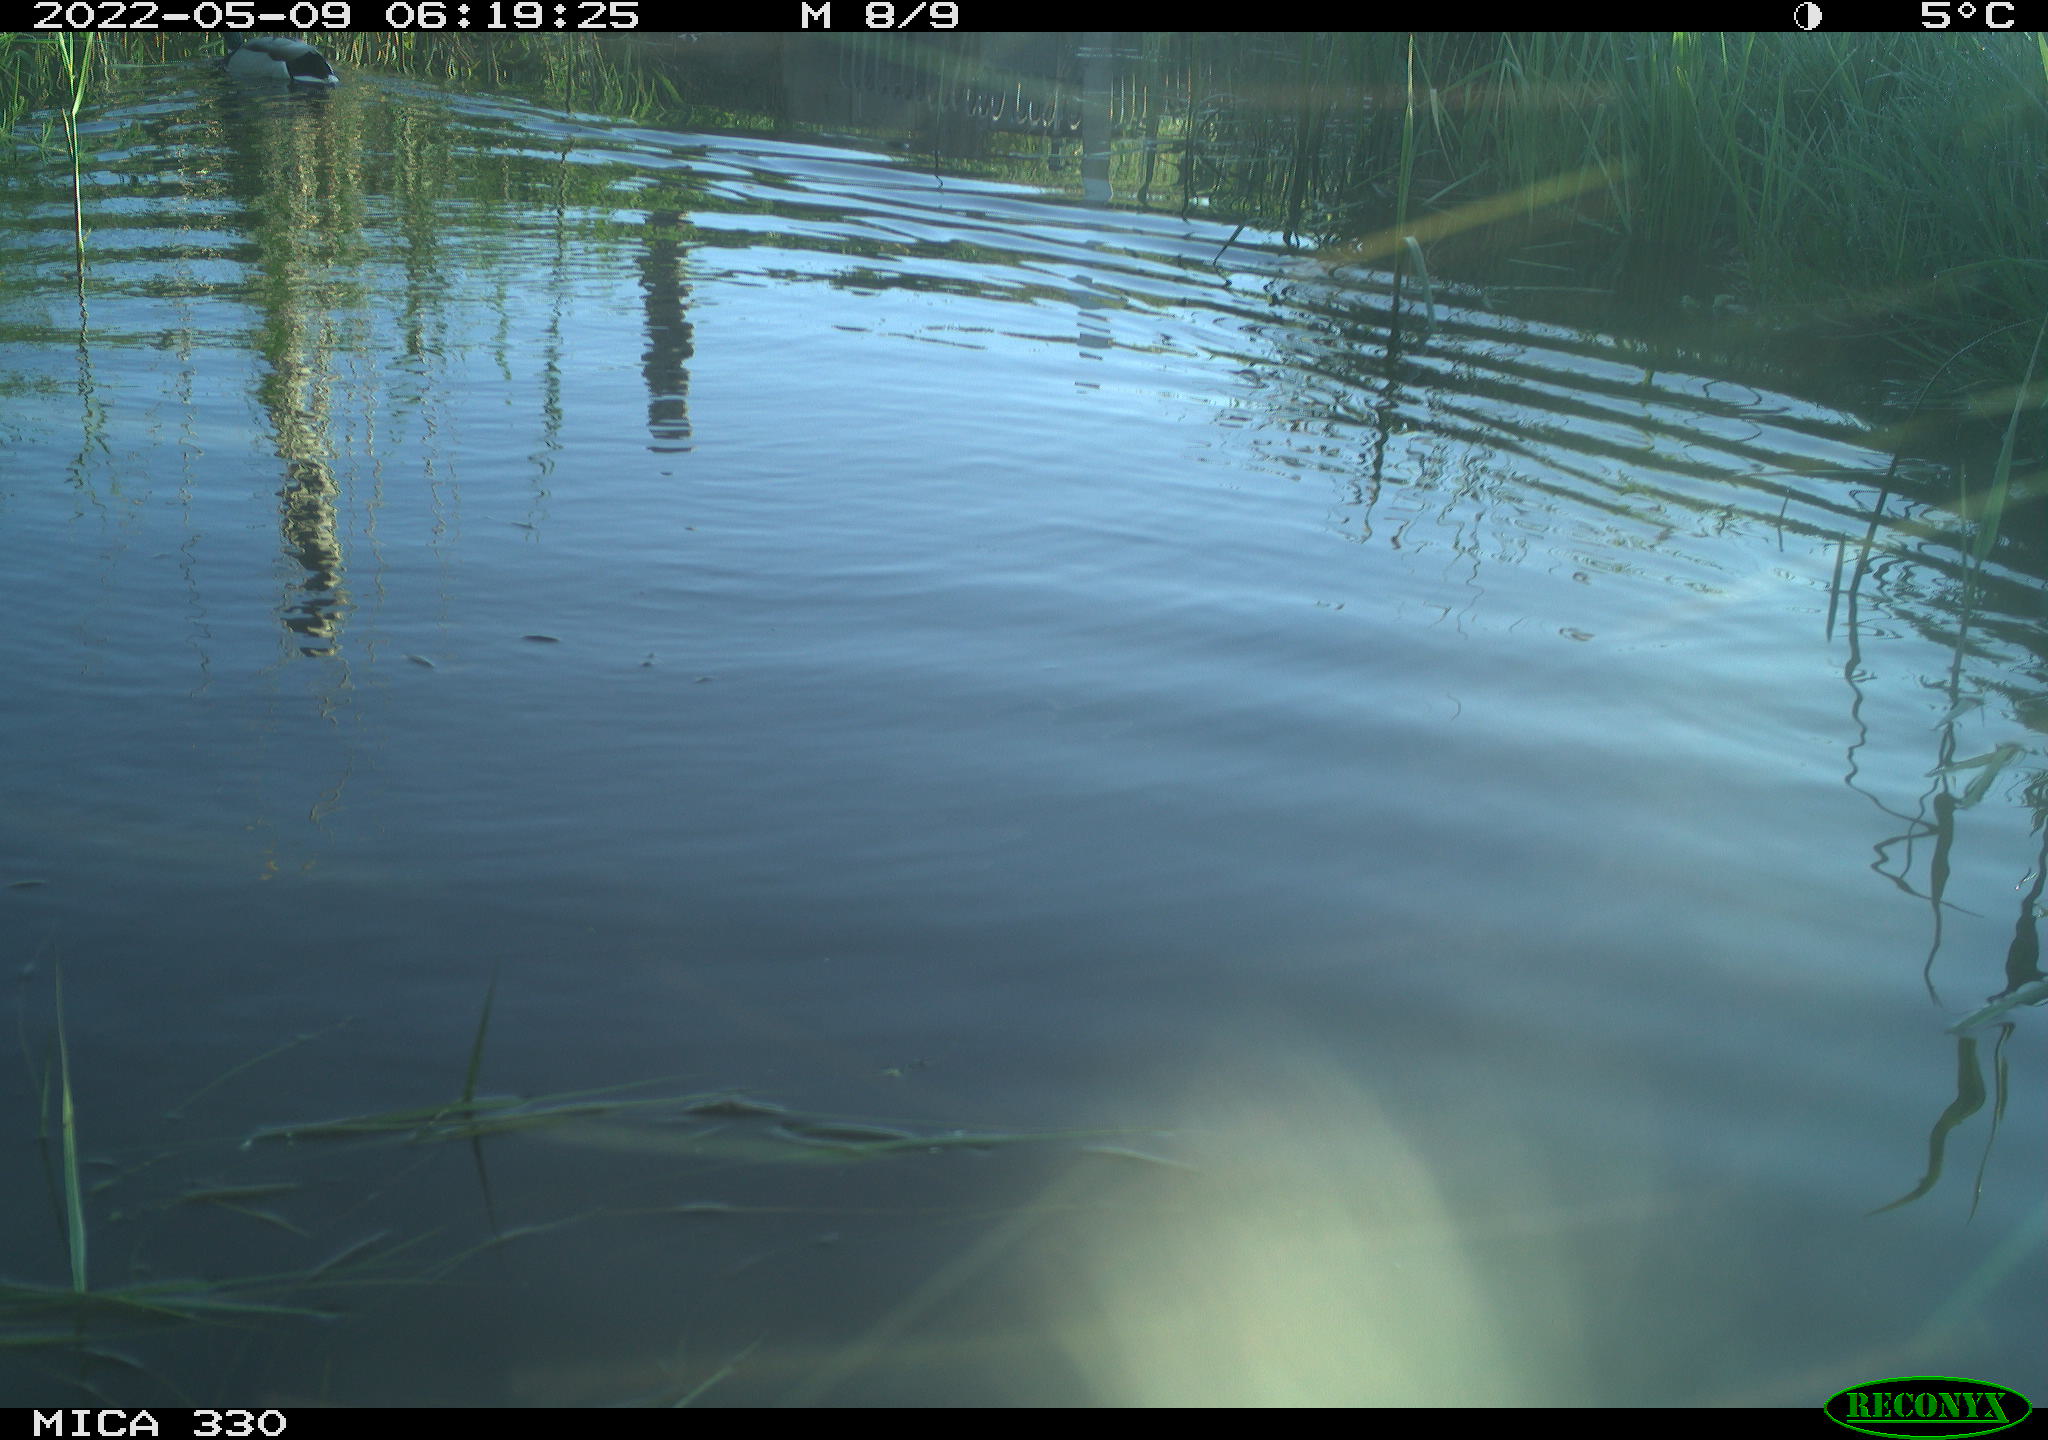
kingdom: Animalia
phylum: Chordata
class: Aves
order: Anseriformes
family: Anatidae
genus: Anas
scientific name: Anas platyrhynchos
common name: Mallard
